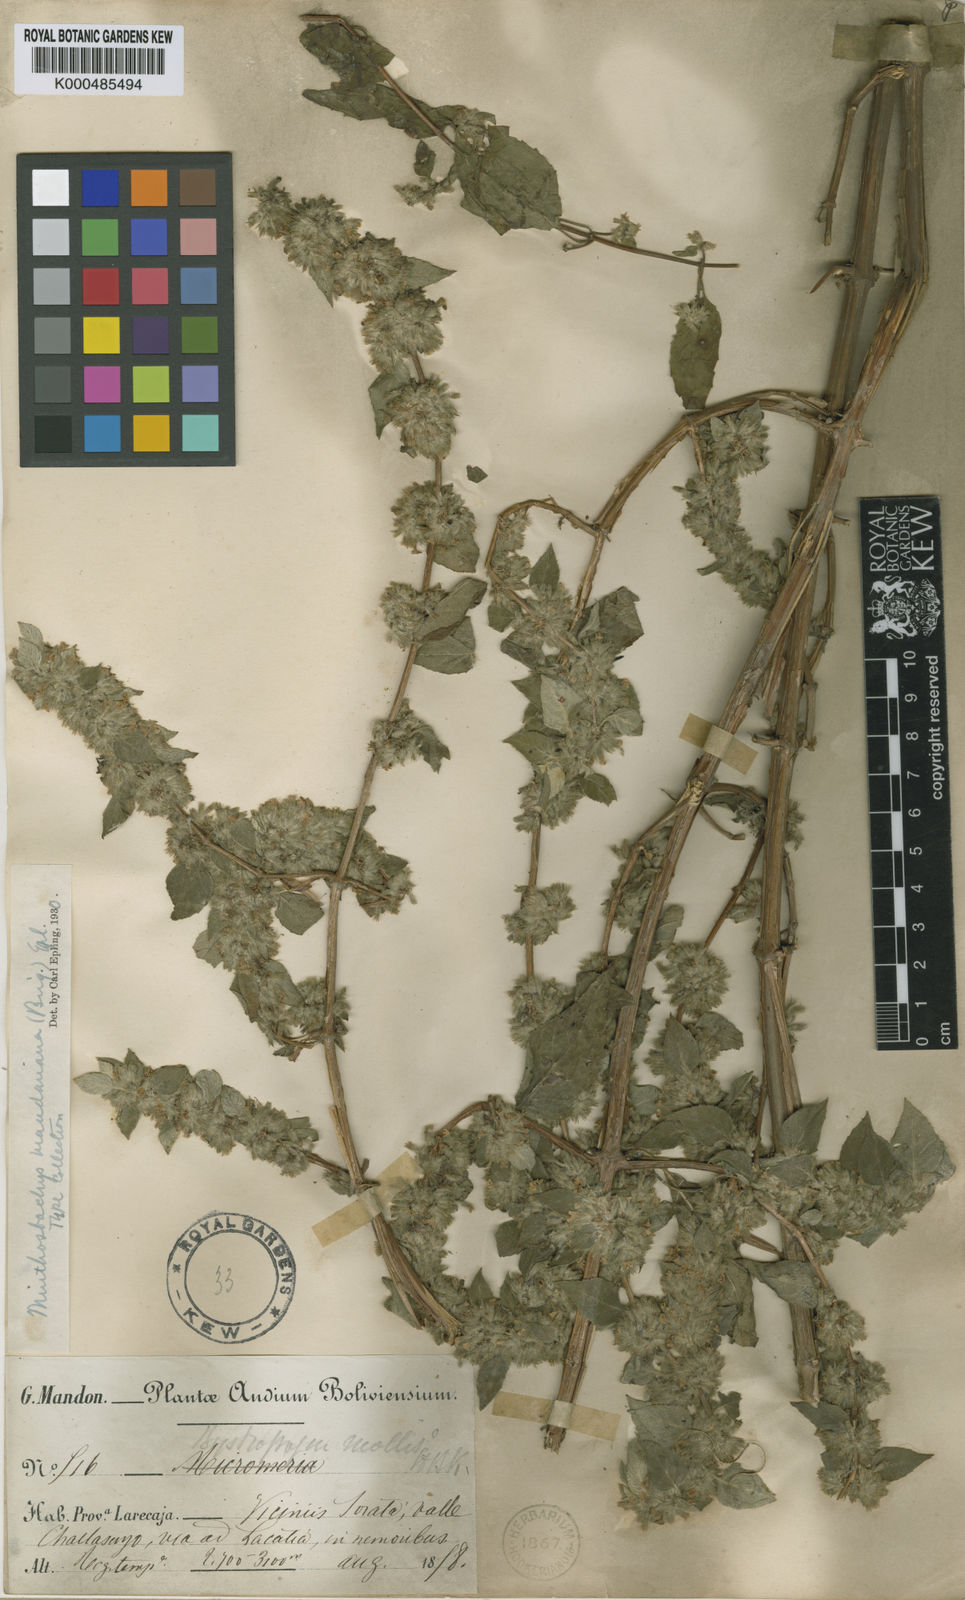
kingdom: Plantae
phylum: Tracheophyta
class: Magnoliopsida
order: Lamiales
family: Lamiaceae
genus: Minthostachys
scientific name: Minthostachys mollis
